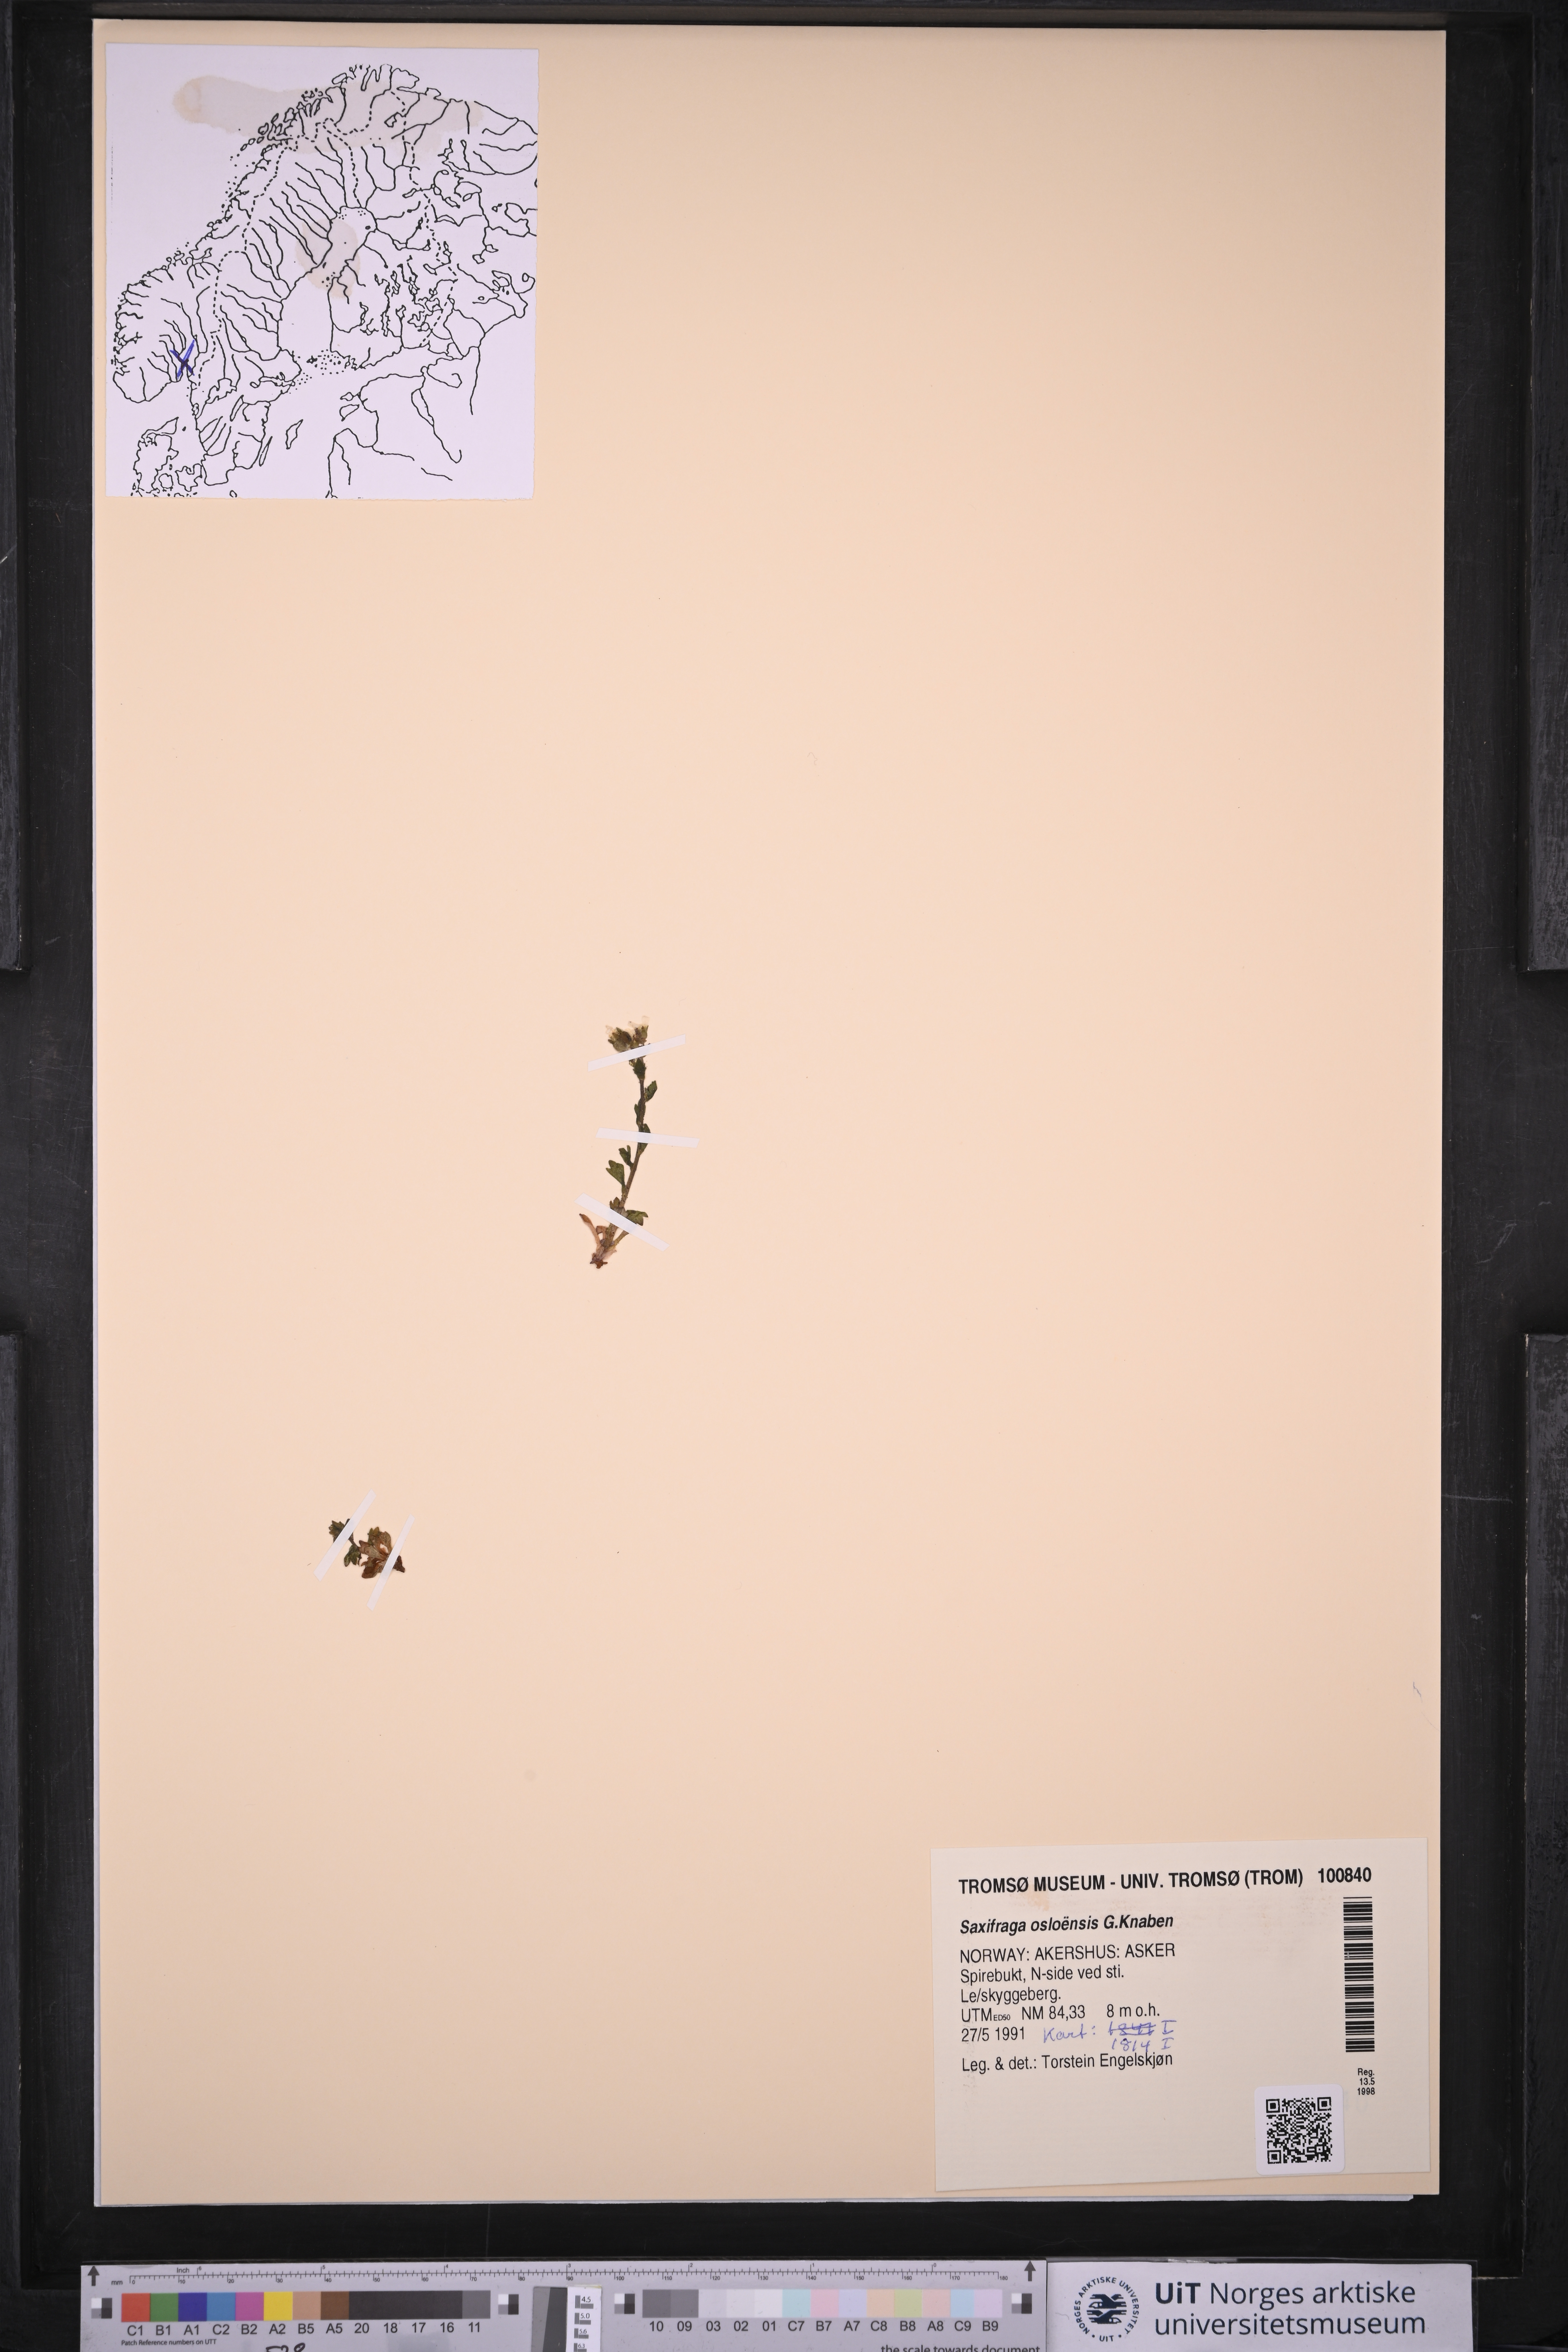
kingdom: Plantae
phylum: Tracheophyta
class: Magnoliopsida
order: Saxifragales
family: Saxifragaceae
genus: Saxifraga
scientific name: Saxifraga osloensis
